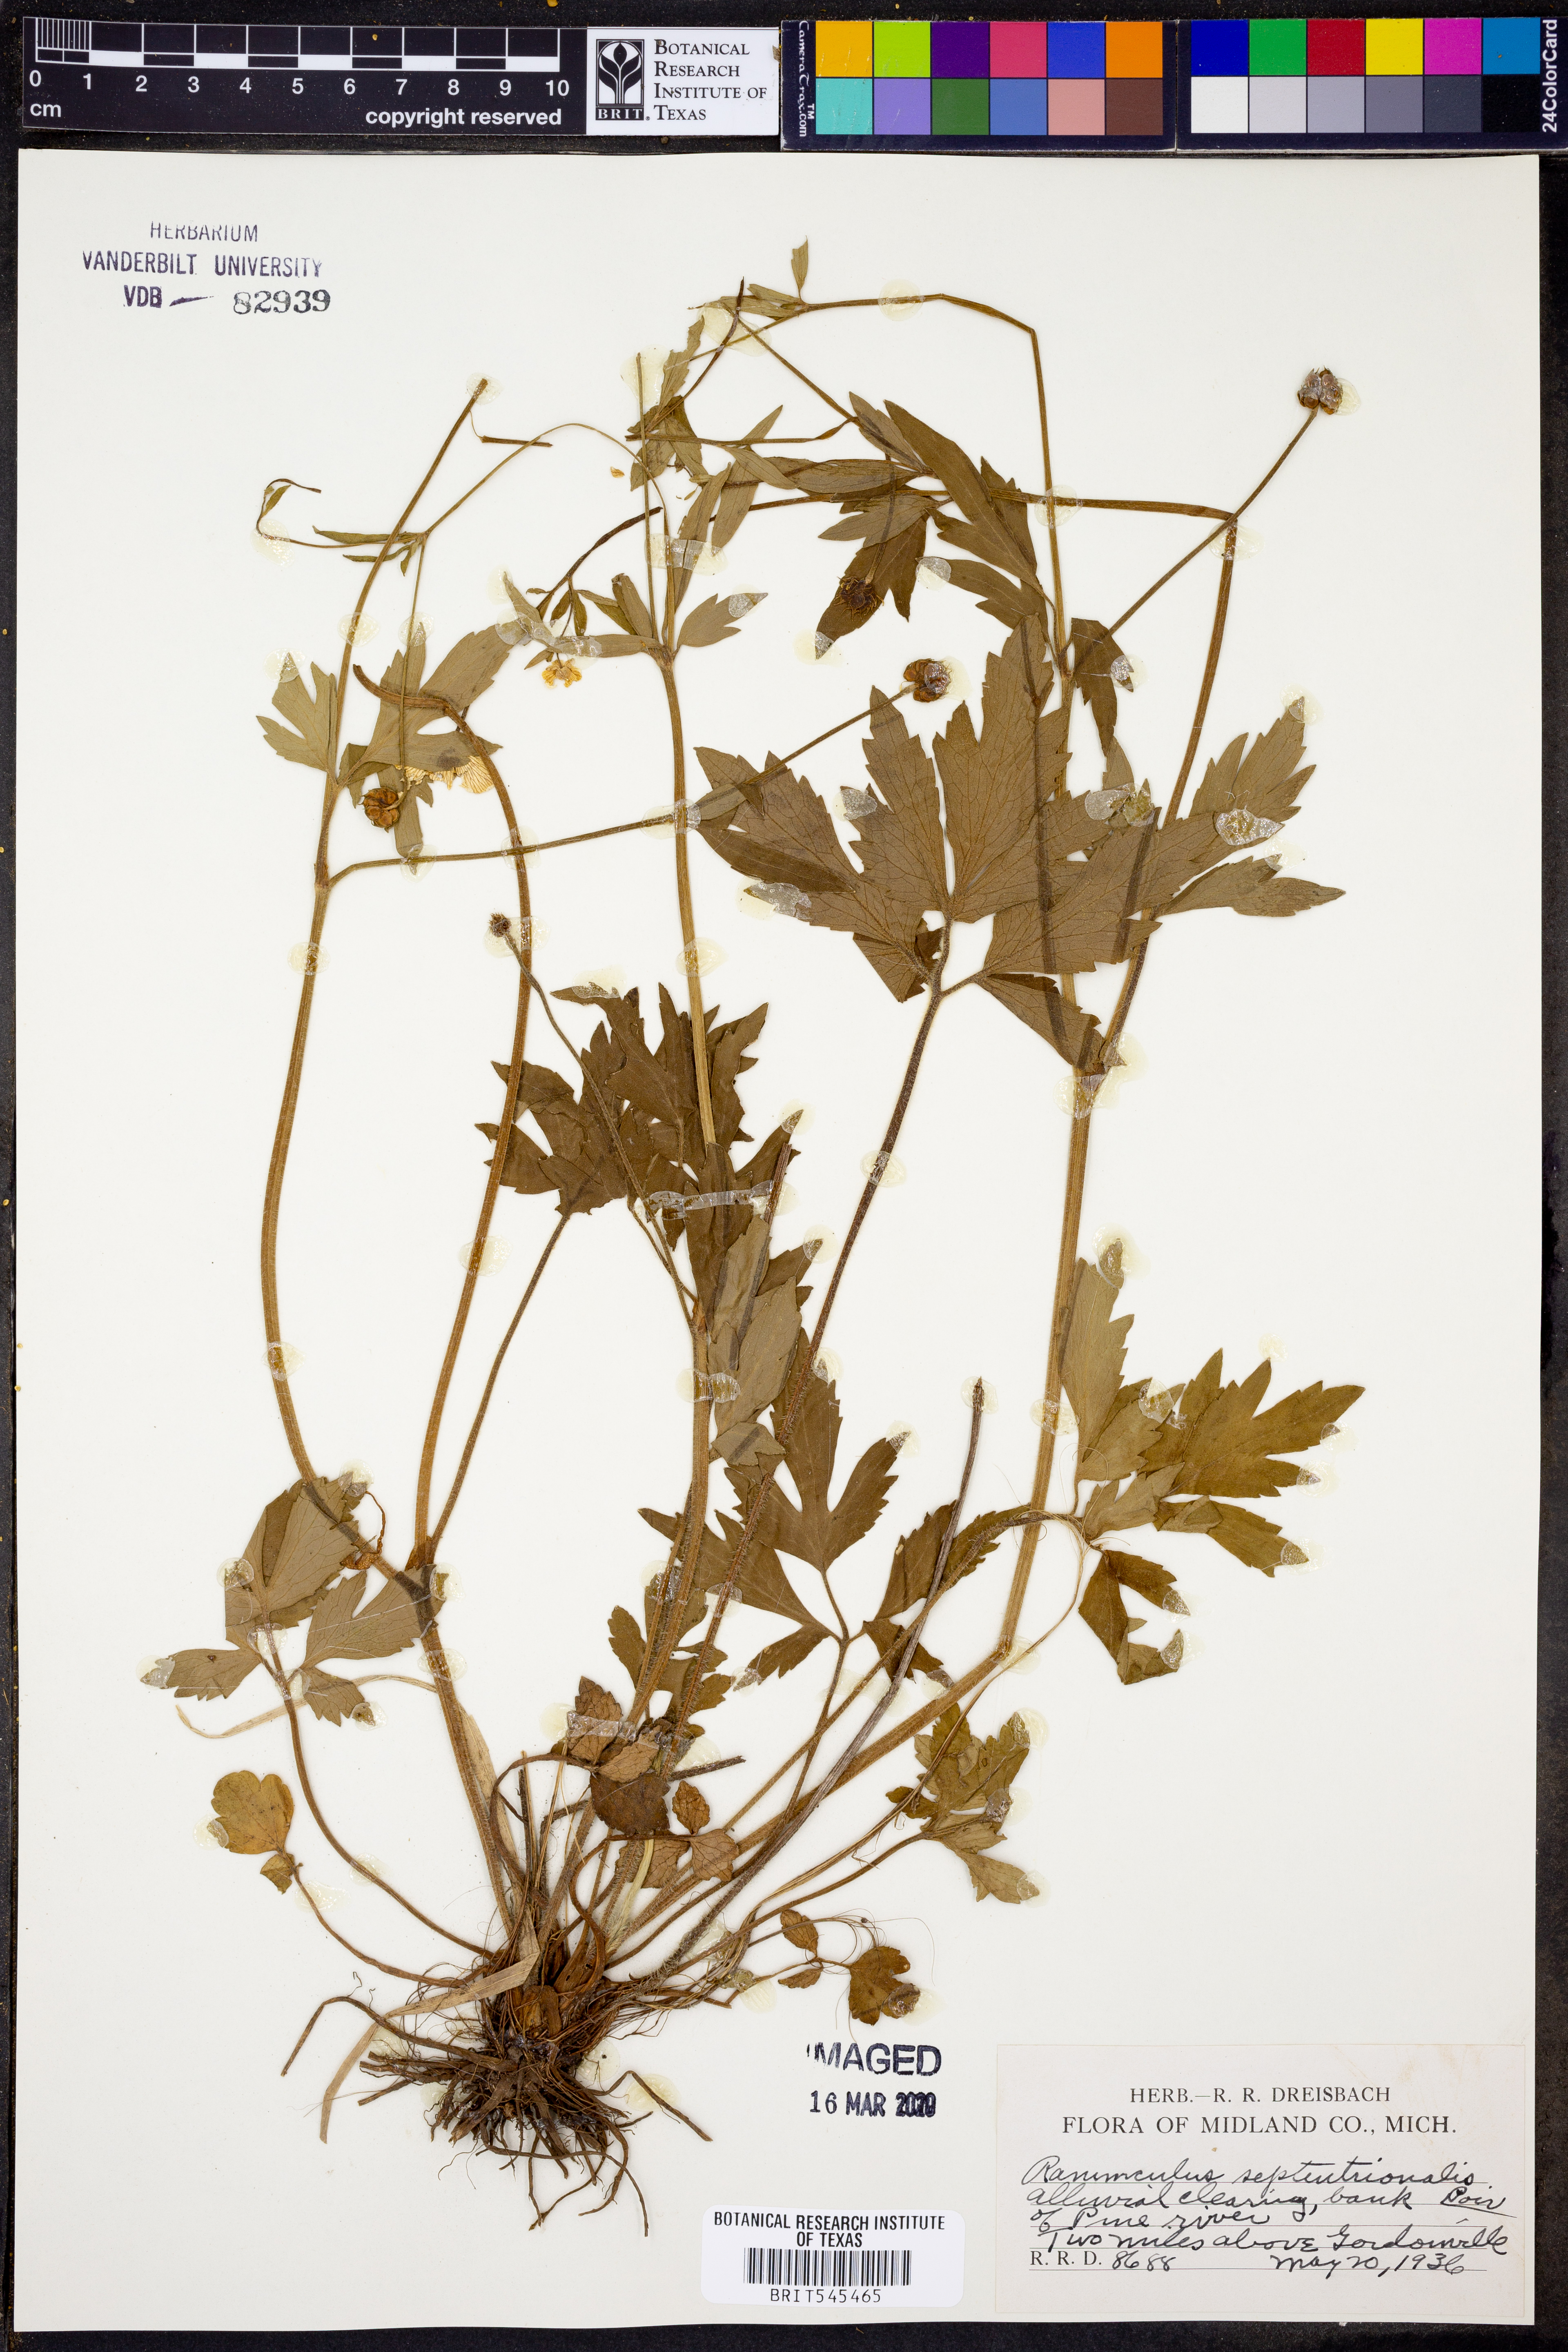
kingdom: Plantae
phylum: Tracheophyta
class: Magnoliopsida
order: Ranunculales
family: Ranunculaceae
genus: Ranunculus
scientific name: Ranunculus hispidus
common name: Bristly buttercup
